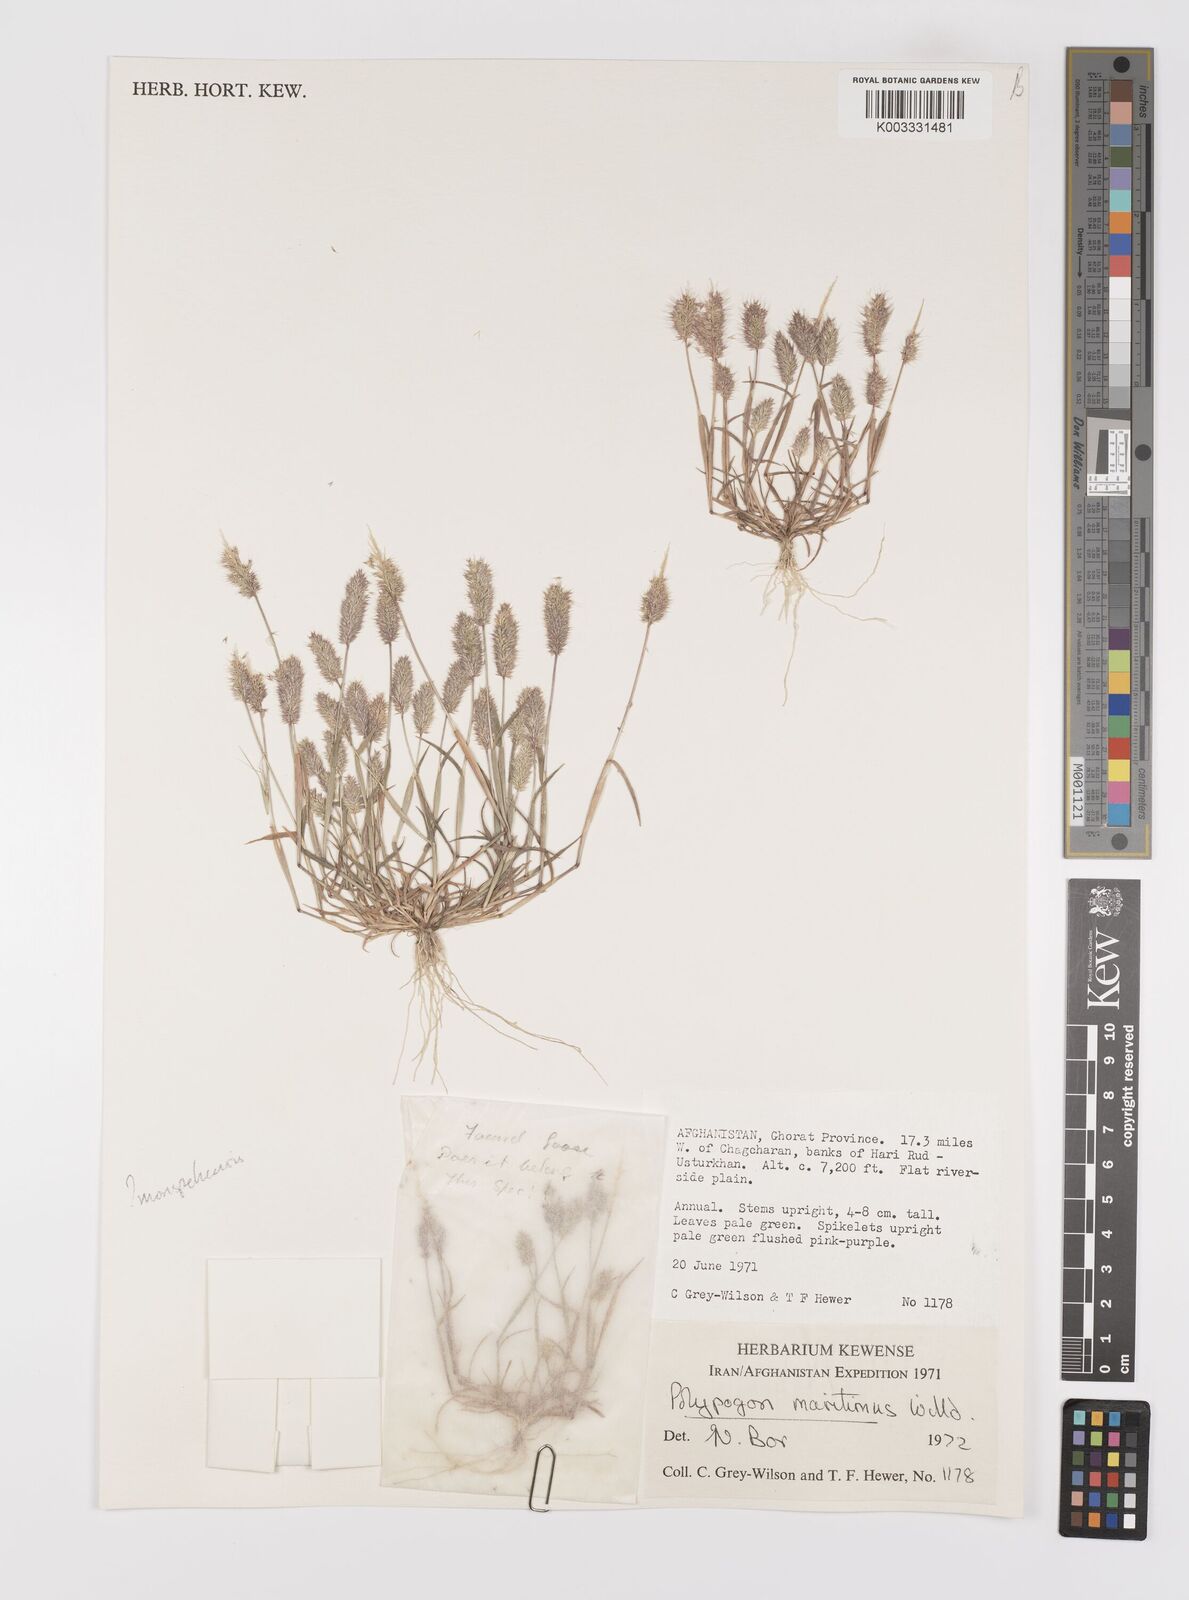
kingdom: Plantae
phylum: Tracheophyta
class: Liliopsida
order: Poales
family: Poaceae
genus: Polypogon
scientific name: Polypogon maritimus
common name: Mediterranean rabbitsfoot grass
